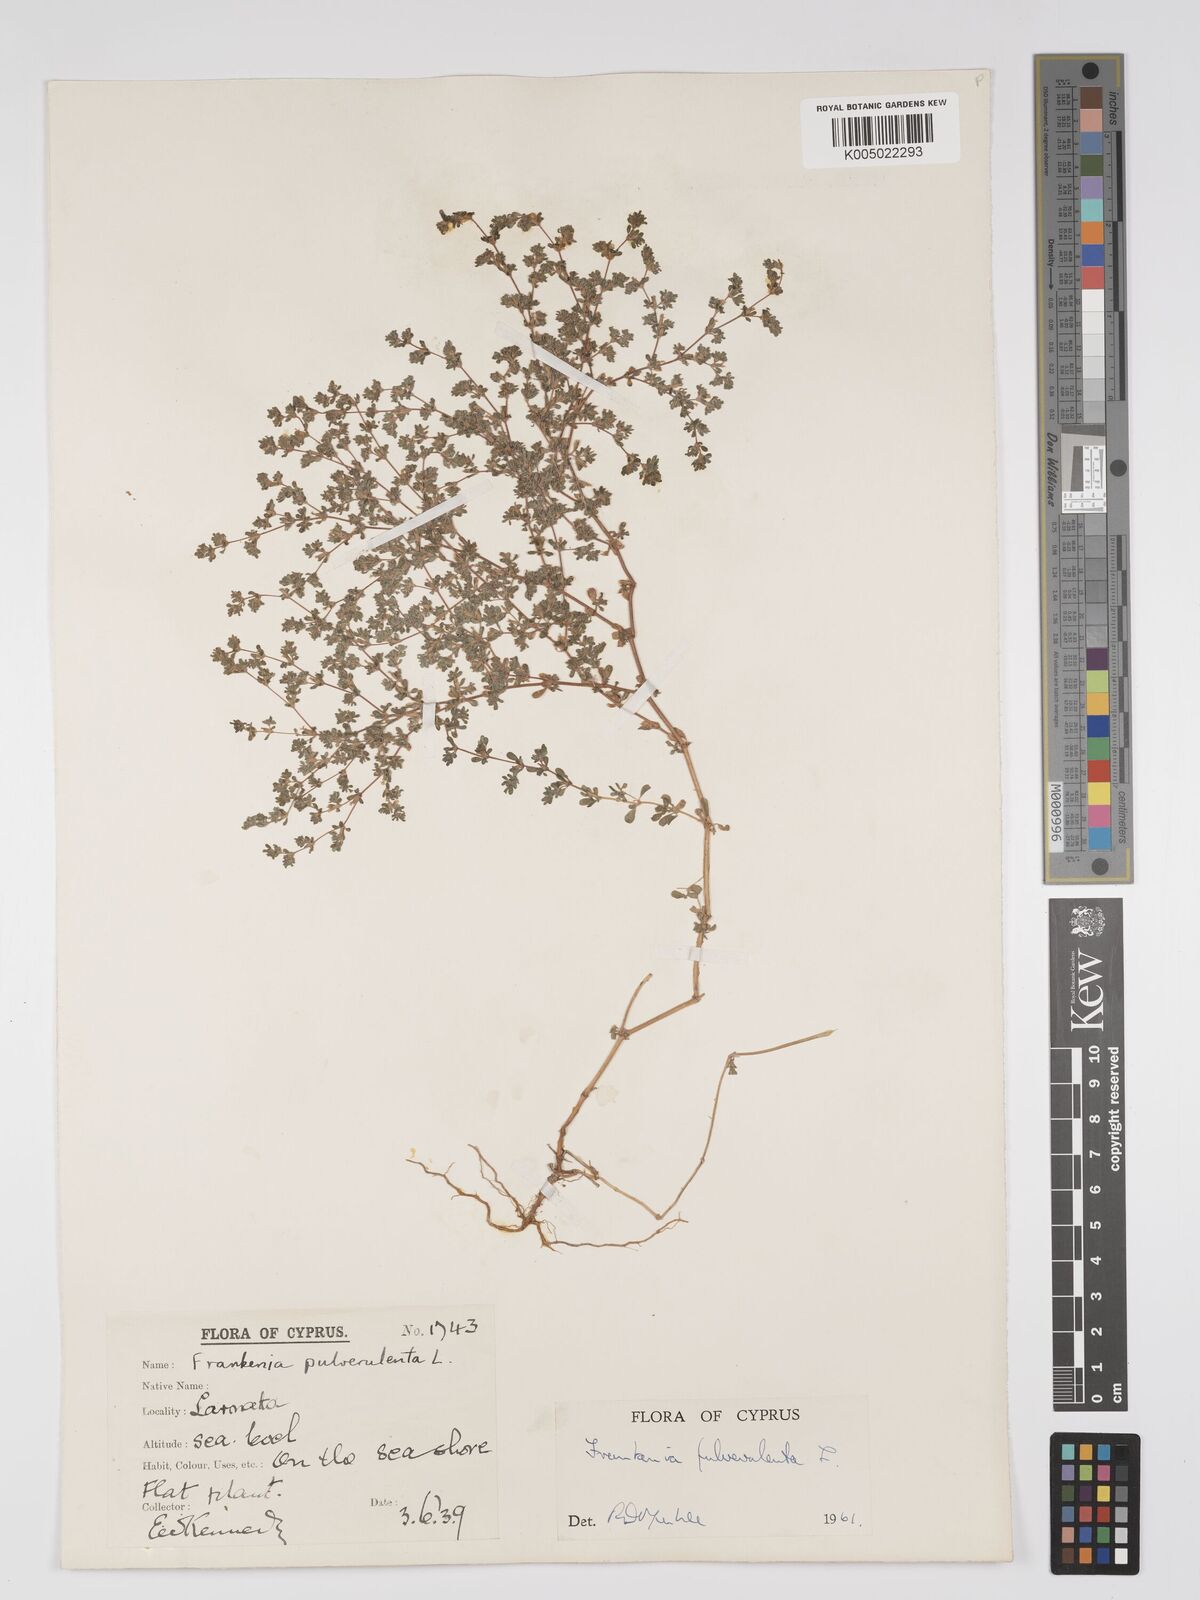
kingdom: Plantae
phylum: Tracheophyta
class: Magnoliopsida
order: Caryophyllales
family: Frankeniaceae
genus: Frankenia
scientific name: Frankenia pulverulenta
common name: European seaheath
